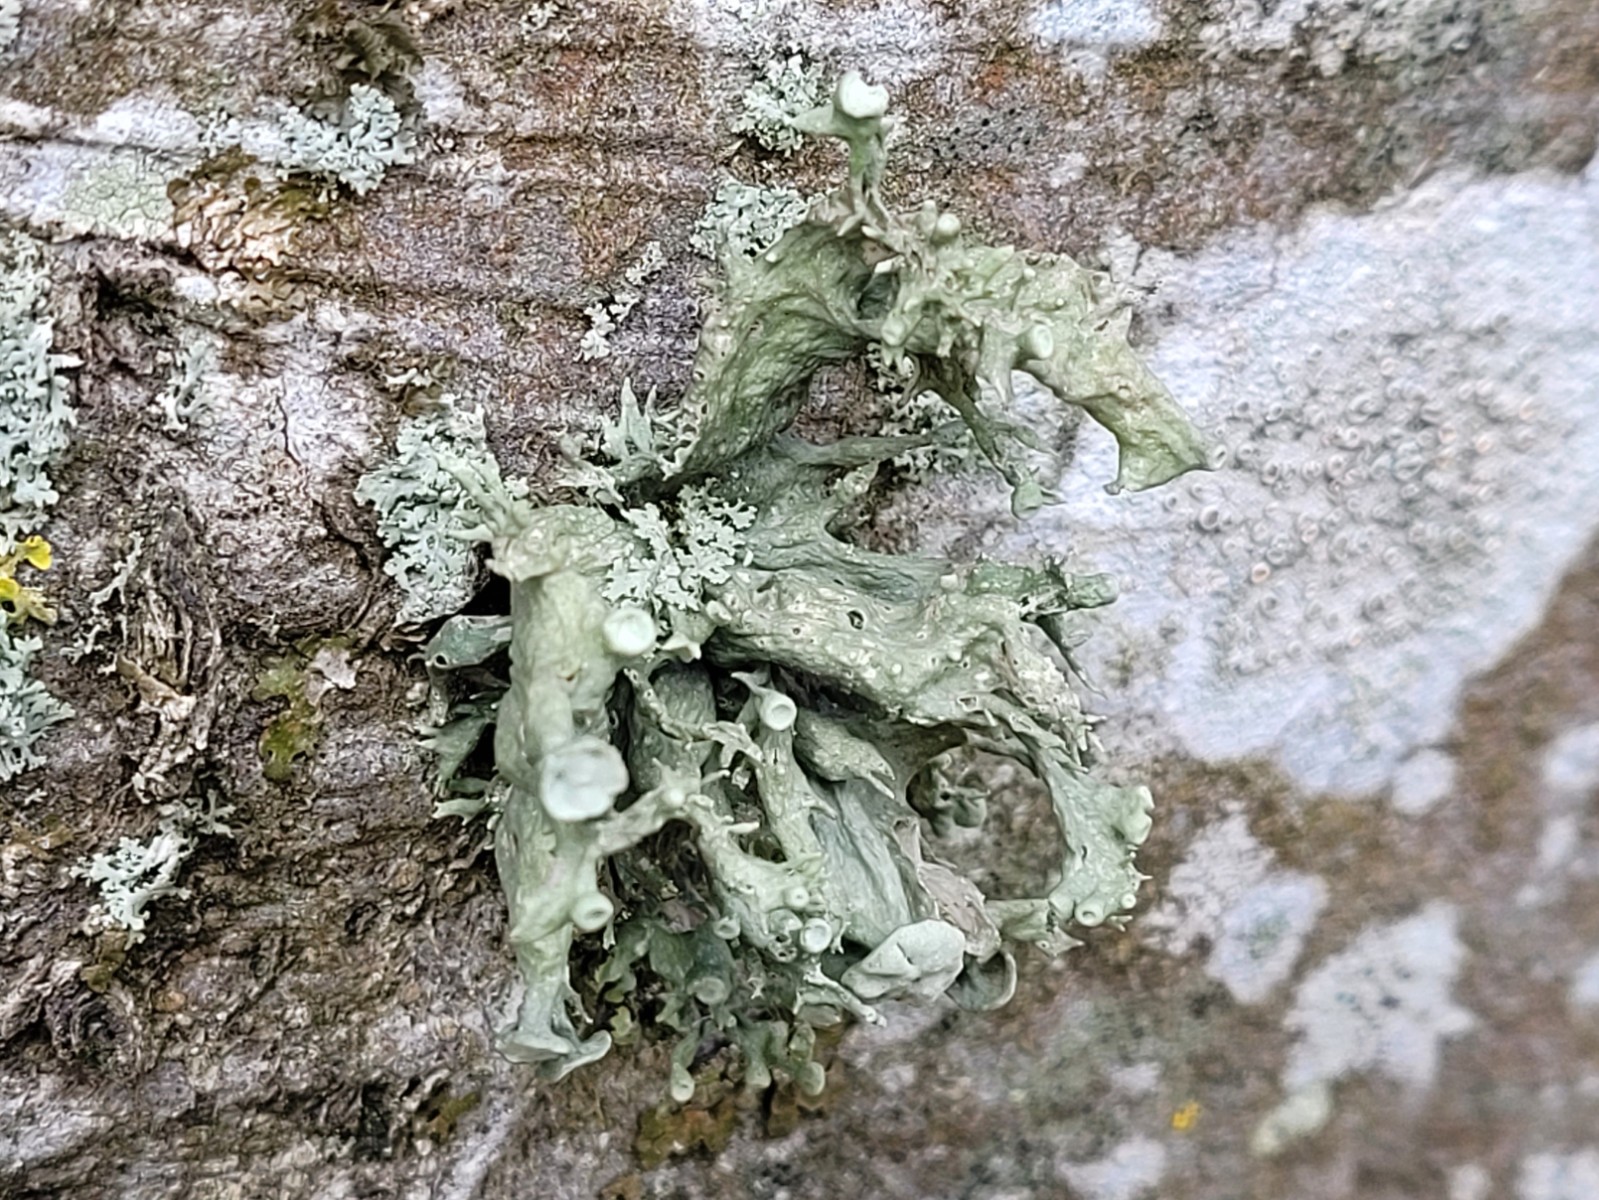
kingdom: Fungi
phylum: Ascomycota
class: Lecanoromycetes
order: Lecanorales
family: Ramalinaceae
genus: Ramalina
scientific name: Ramalina fastigiata
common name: tue-grenlav
